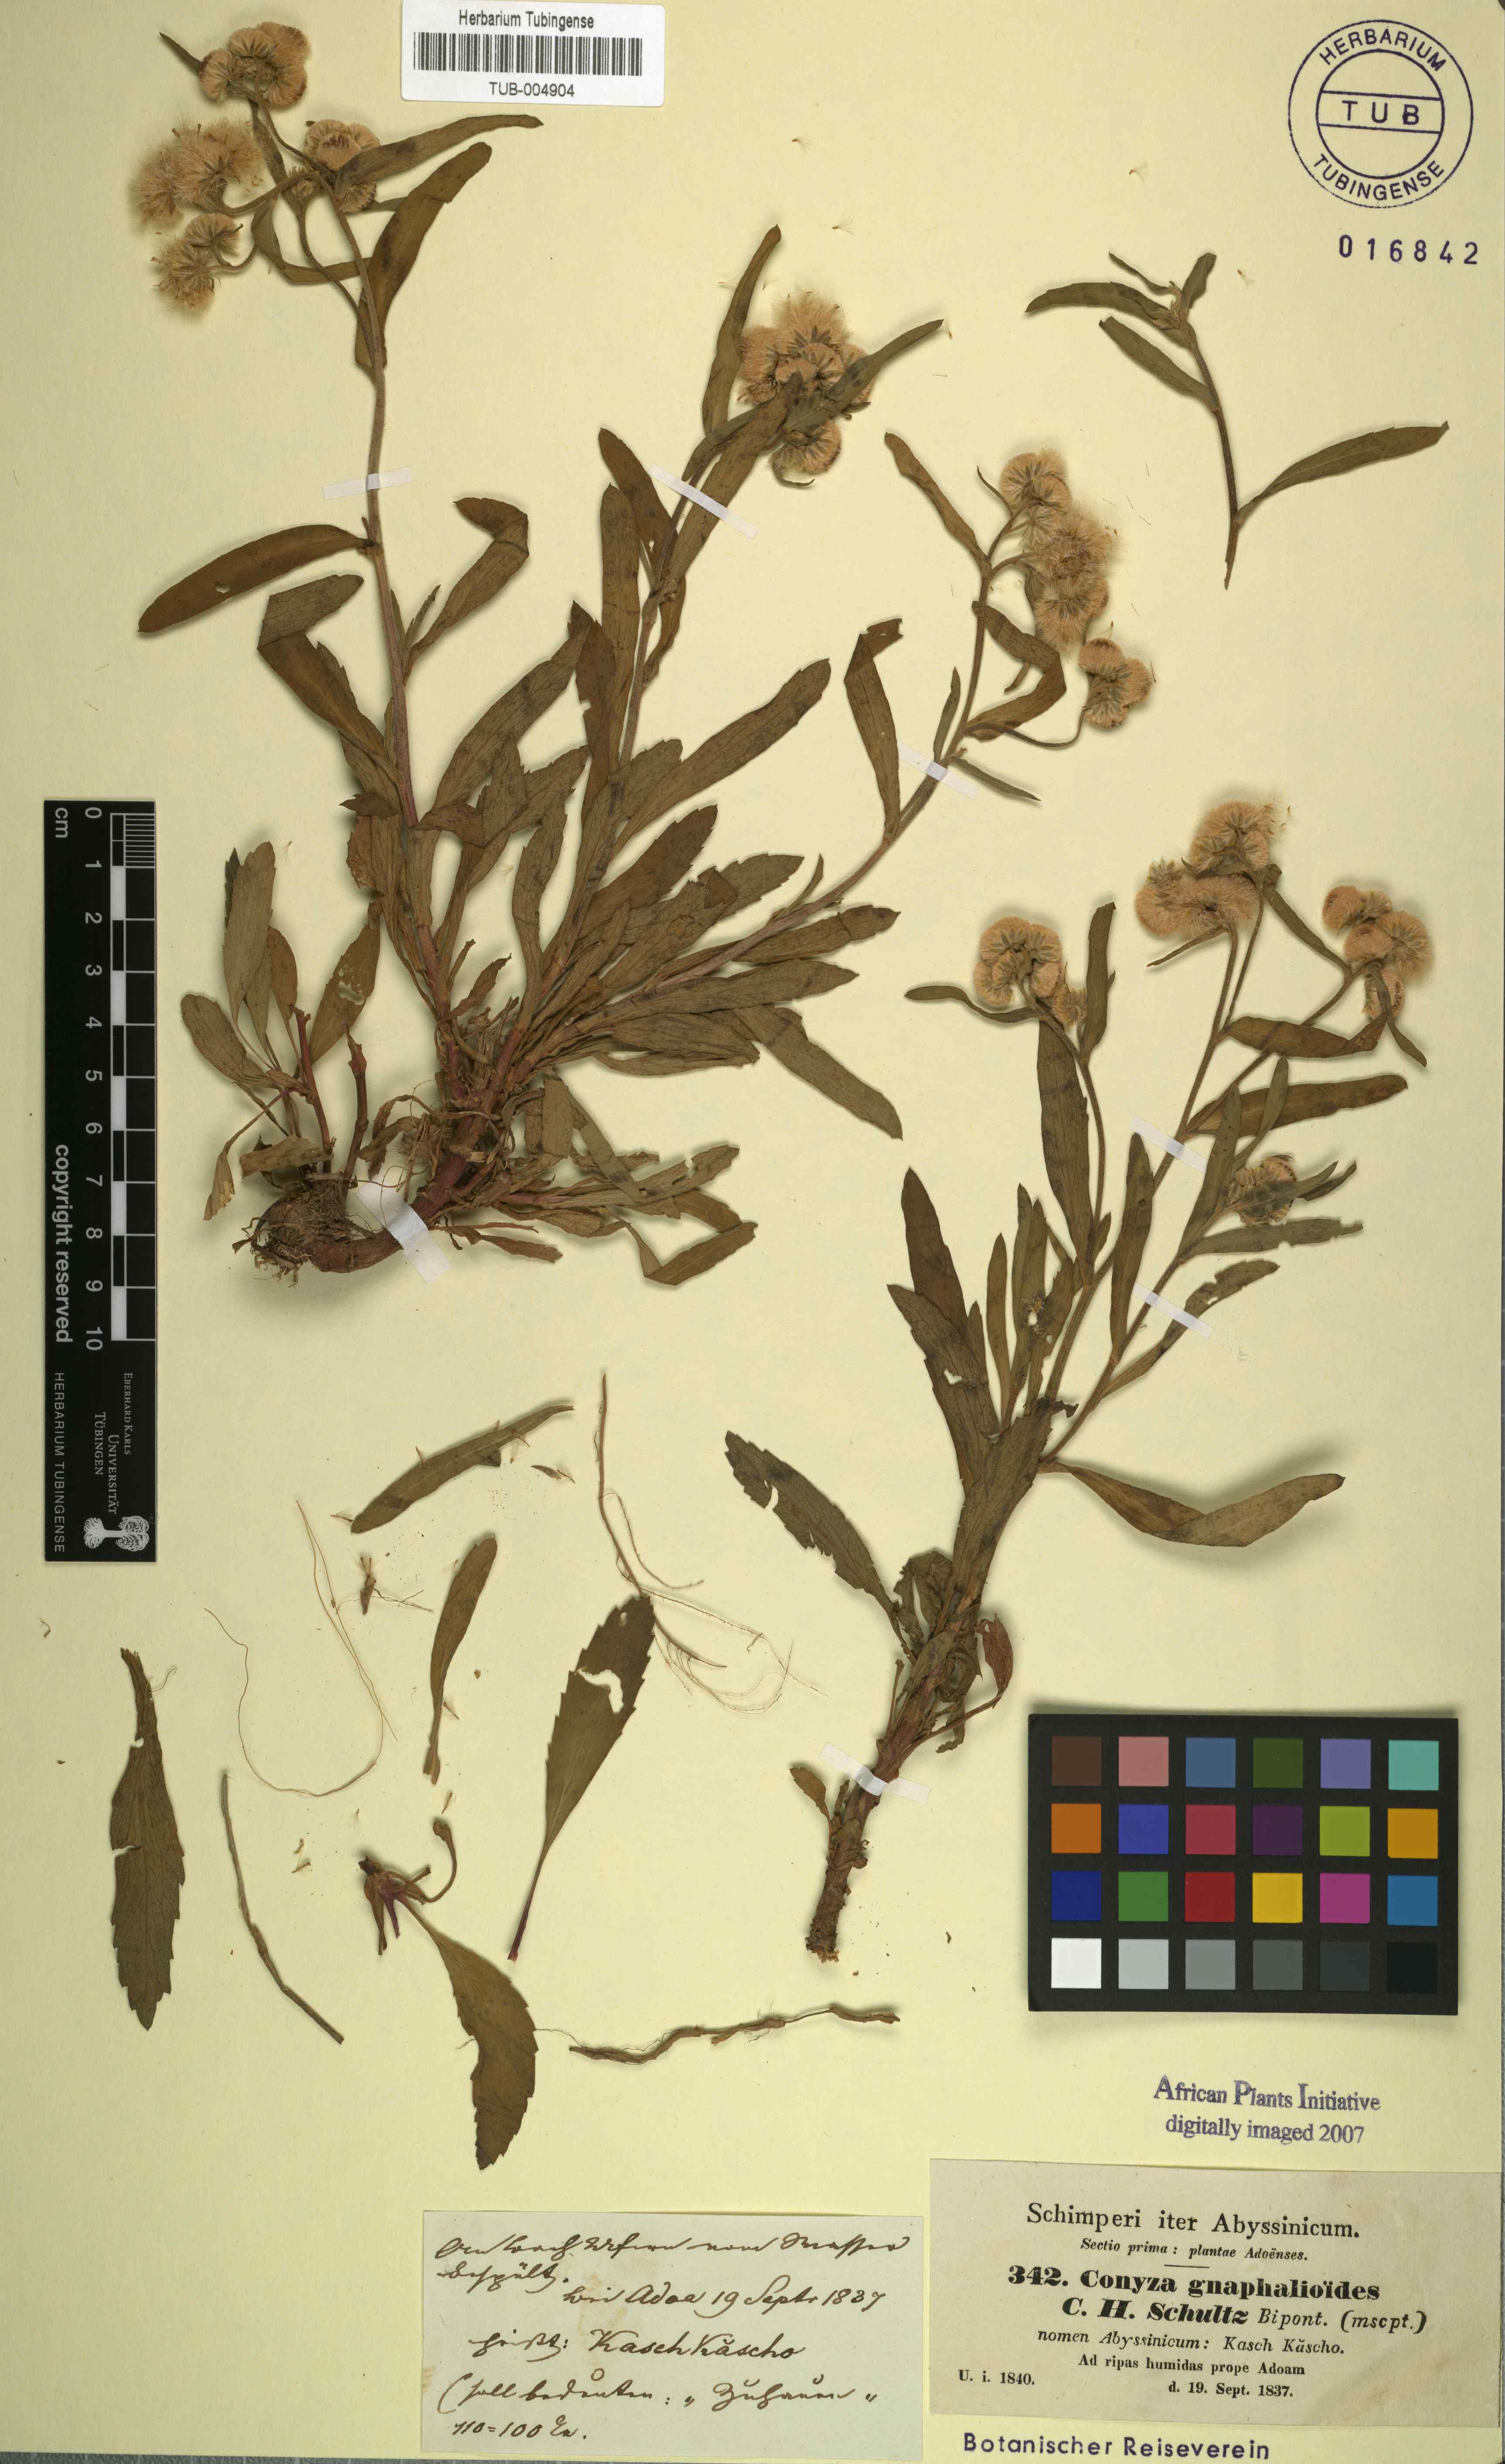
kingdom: Plantae
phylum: Tracheophyta
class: Magnoliopsida
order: Asterales
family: Asteraceae
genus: Eschenbachia
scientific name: Eschenbachia gouanii
